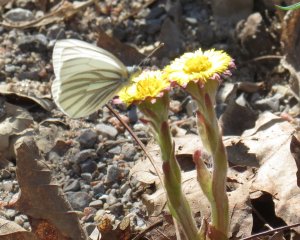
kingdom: Animalia
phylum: Arthropoda
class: Insecta
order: Lepidoptera
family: Pieridae
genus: Pieris
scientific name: Pieris oleracea
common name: Mustard White
